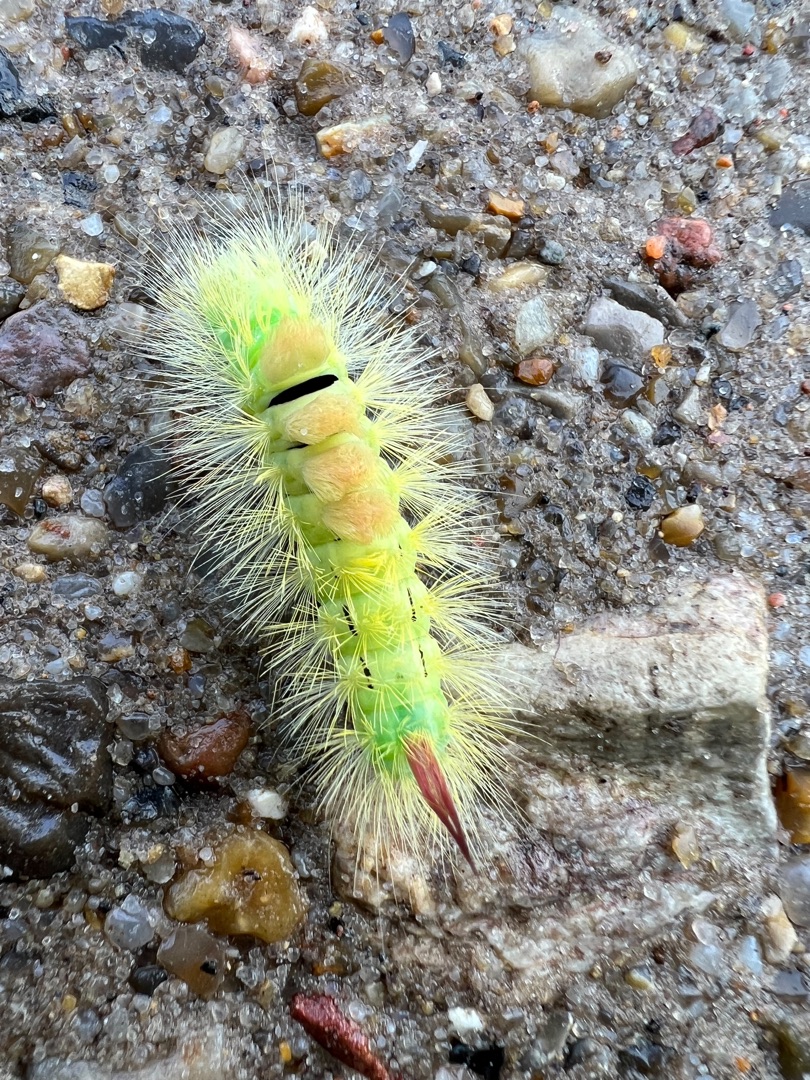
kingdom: Animalia
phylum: Arthropoda
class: Insecta
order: Lepidoptera
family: Erebidae
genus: Calliteara
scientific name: Calliteara pudibunda
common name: Bøgenonne
